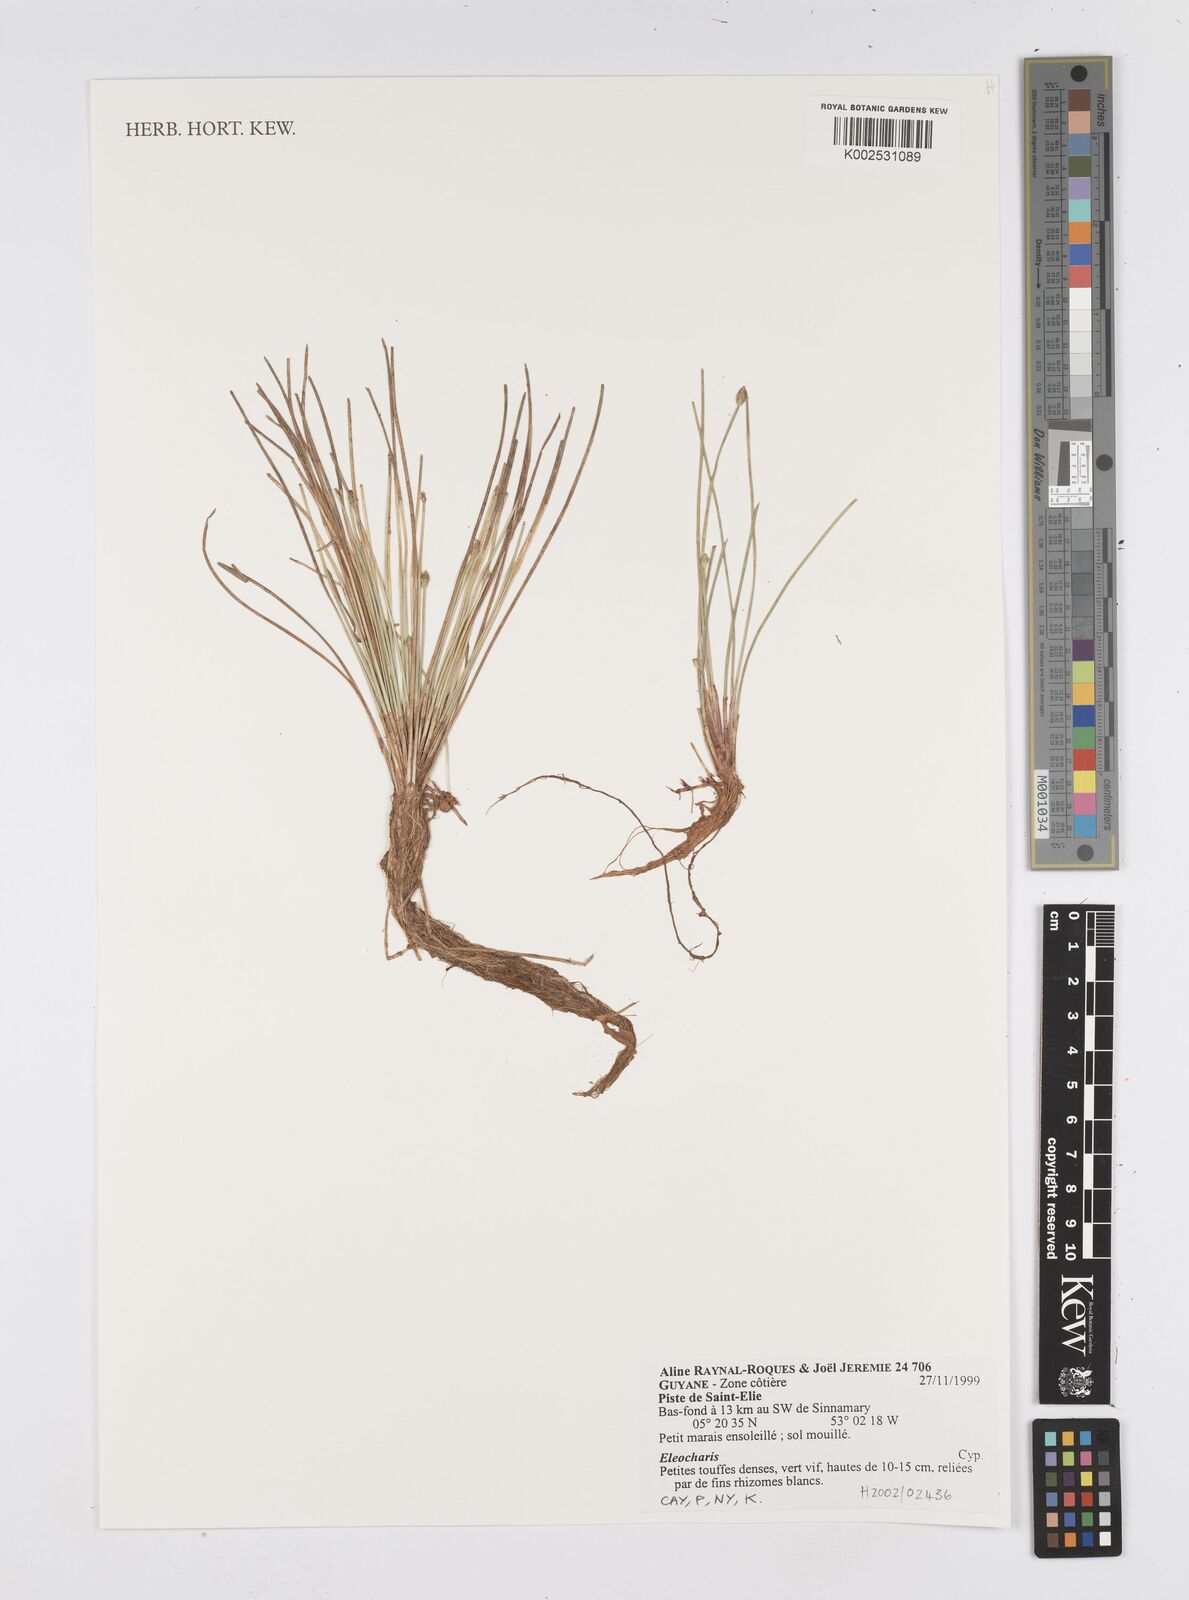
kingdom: Plantae
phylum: Tracheophyta
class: Liliopsida
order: Poales
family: Cyperaceae
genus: Eleocharis
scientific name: Eleocharis
